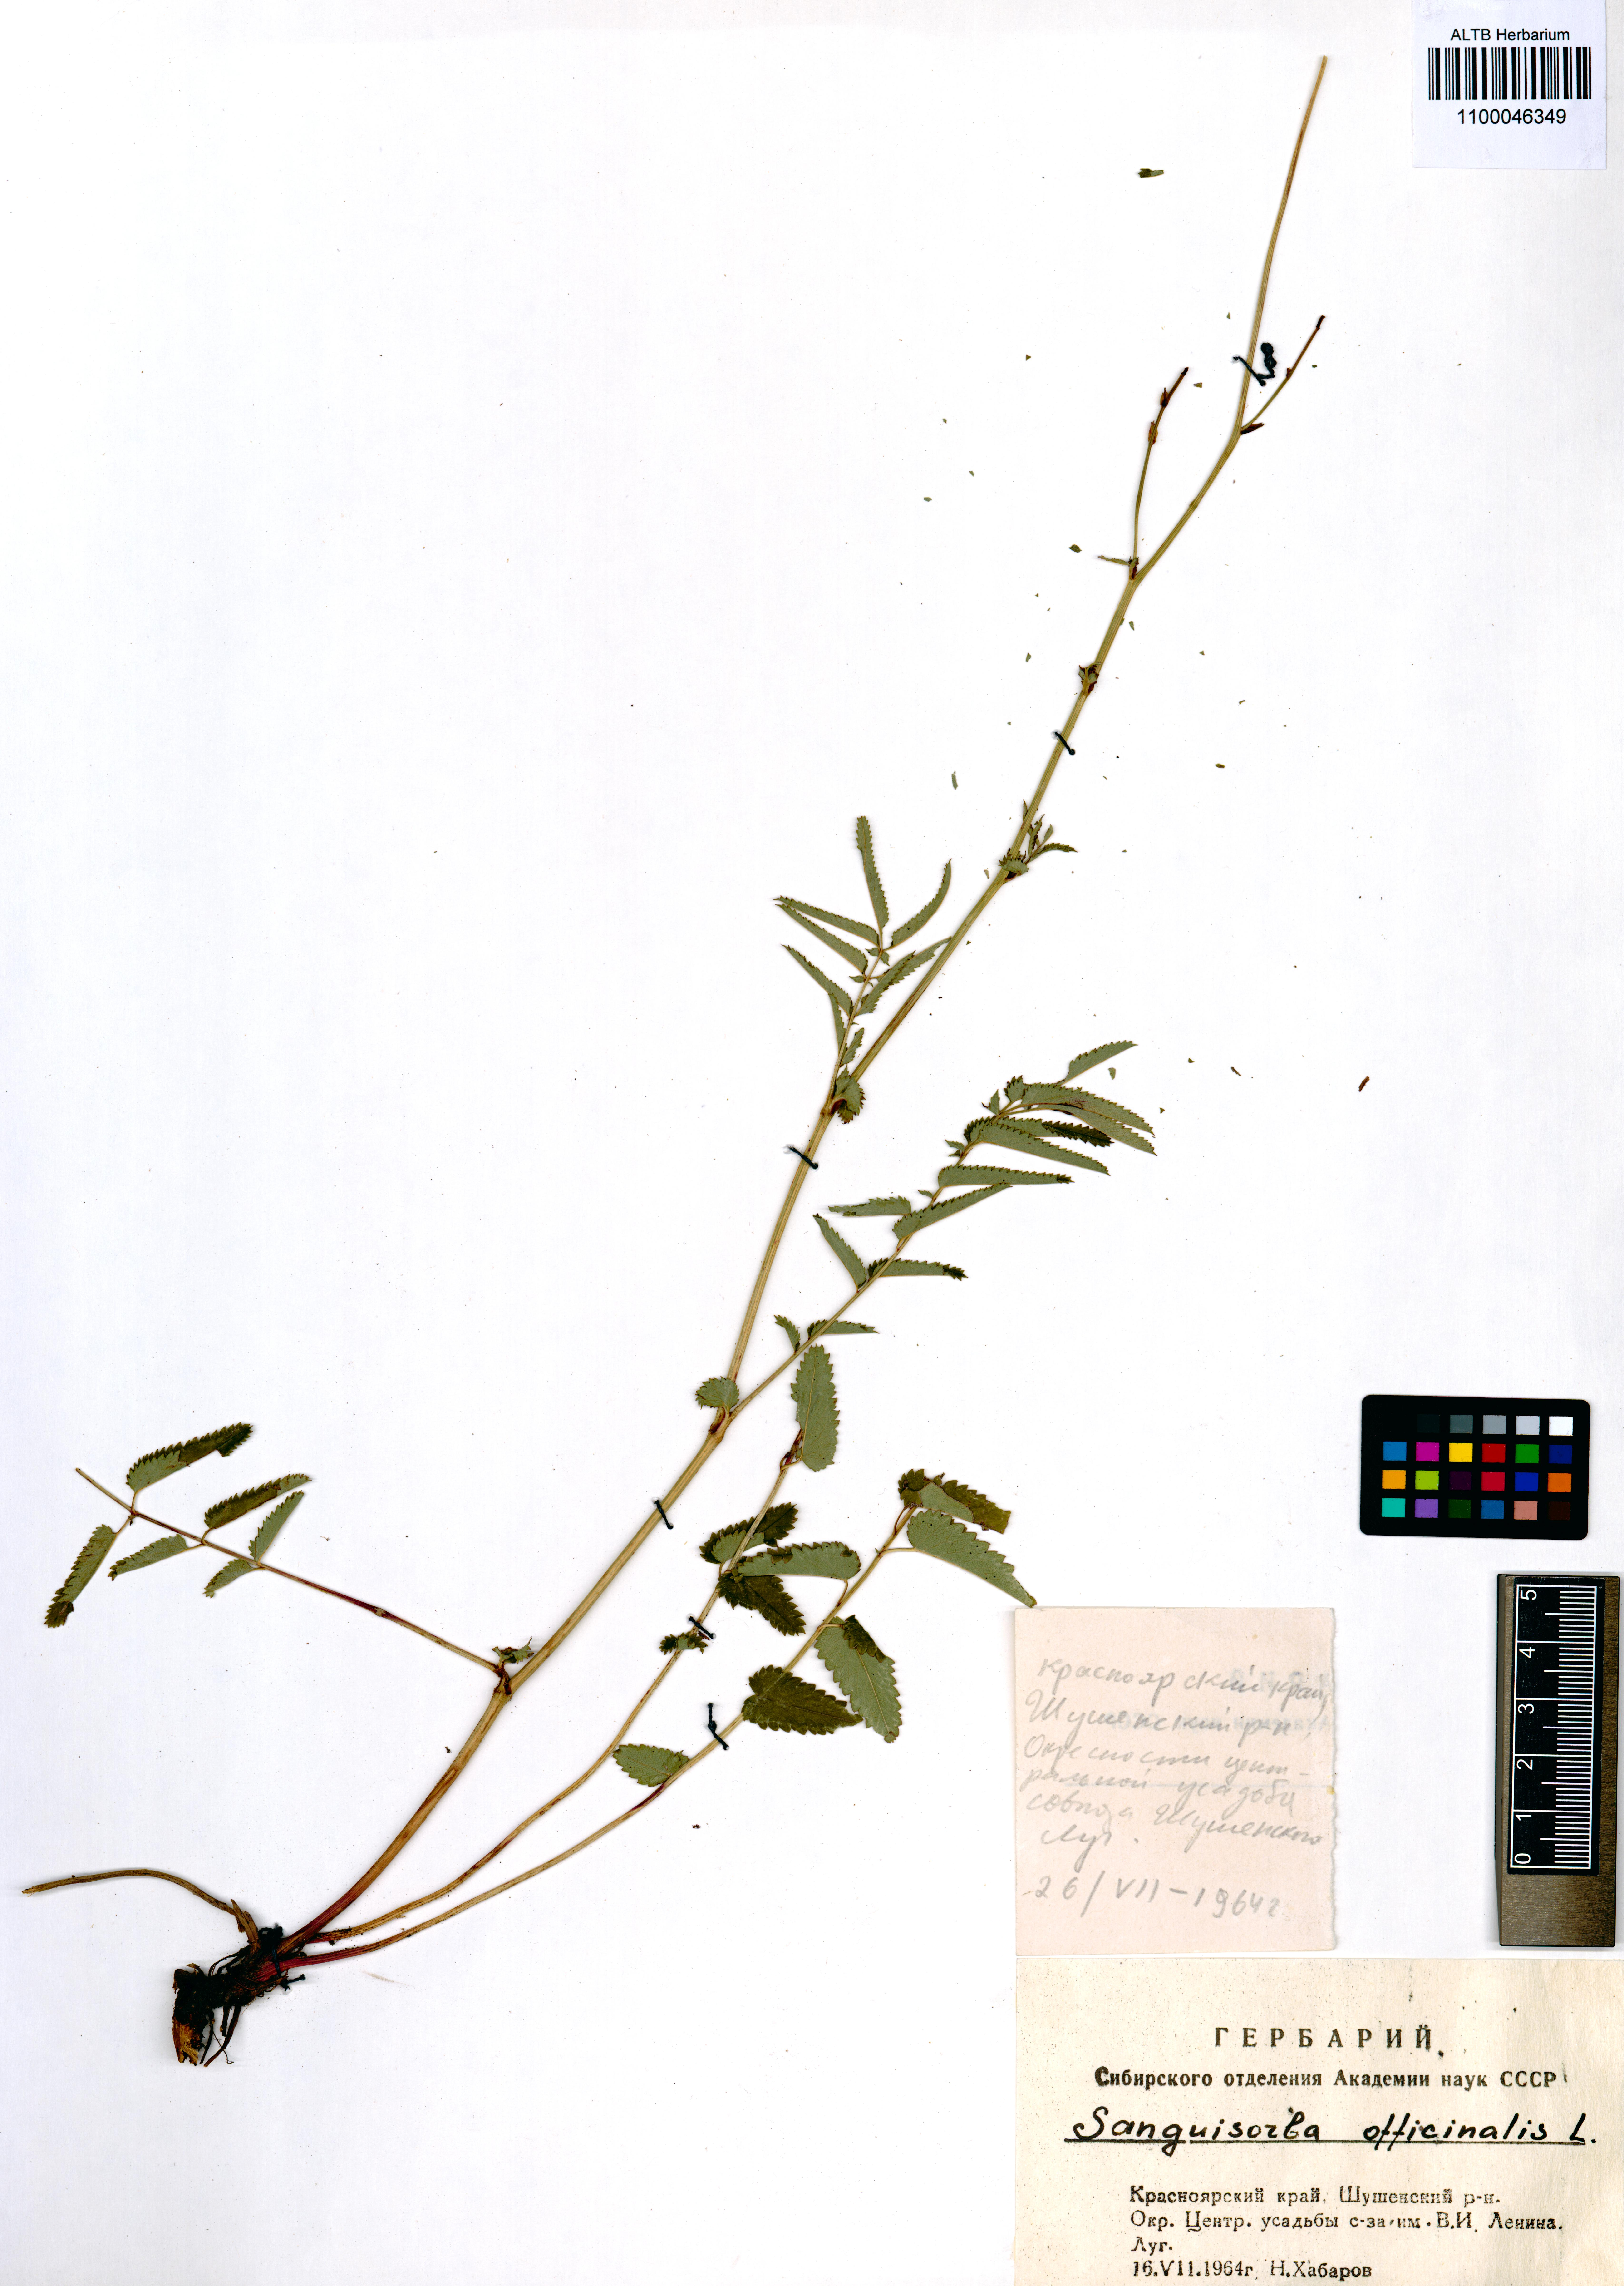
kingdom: Plantae
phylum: Tracheophyta
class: Magnoliopsida
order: Rosales
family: Rosaceae
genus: Sanguisorba
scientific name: Sanguisorba officinalis
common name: Great burnet
